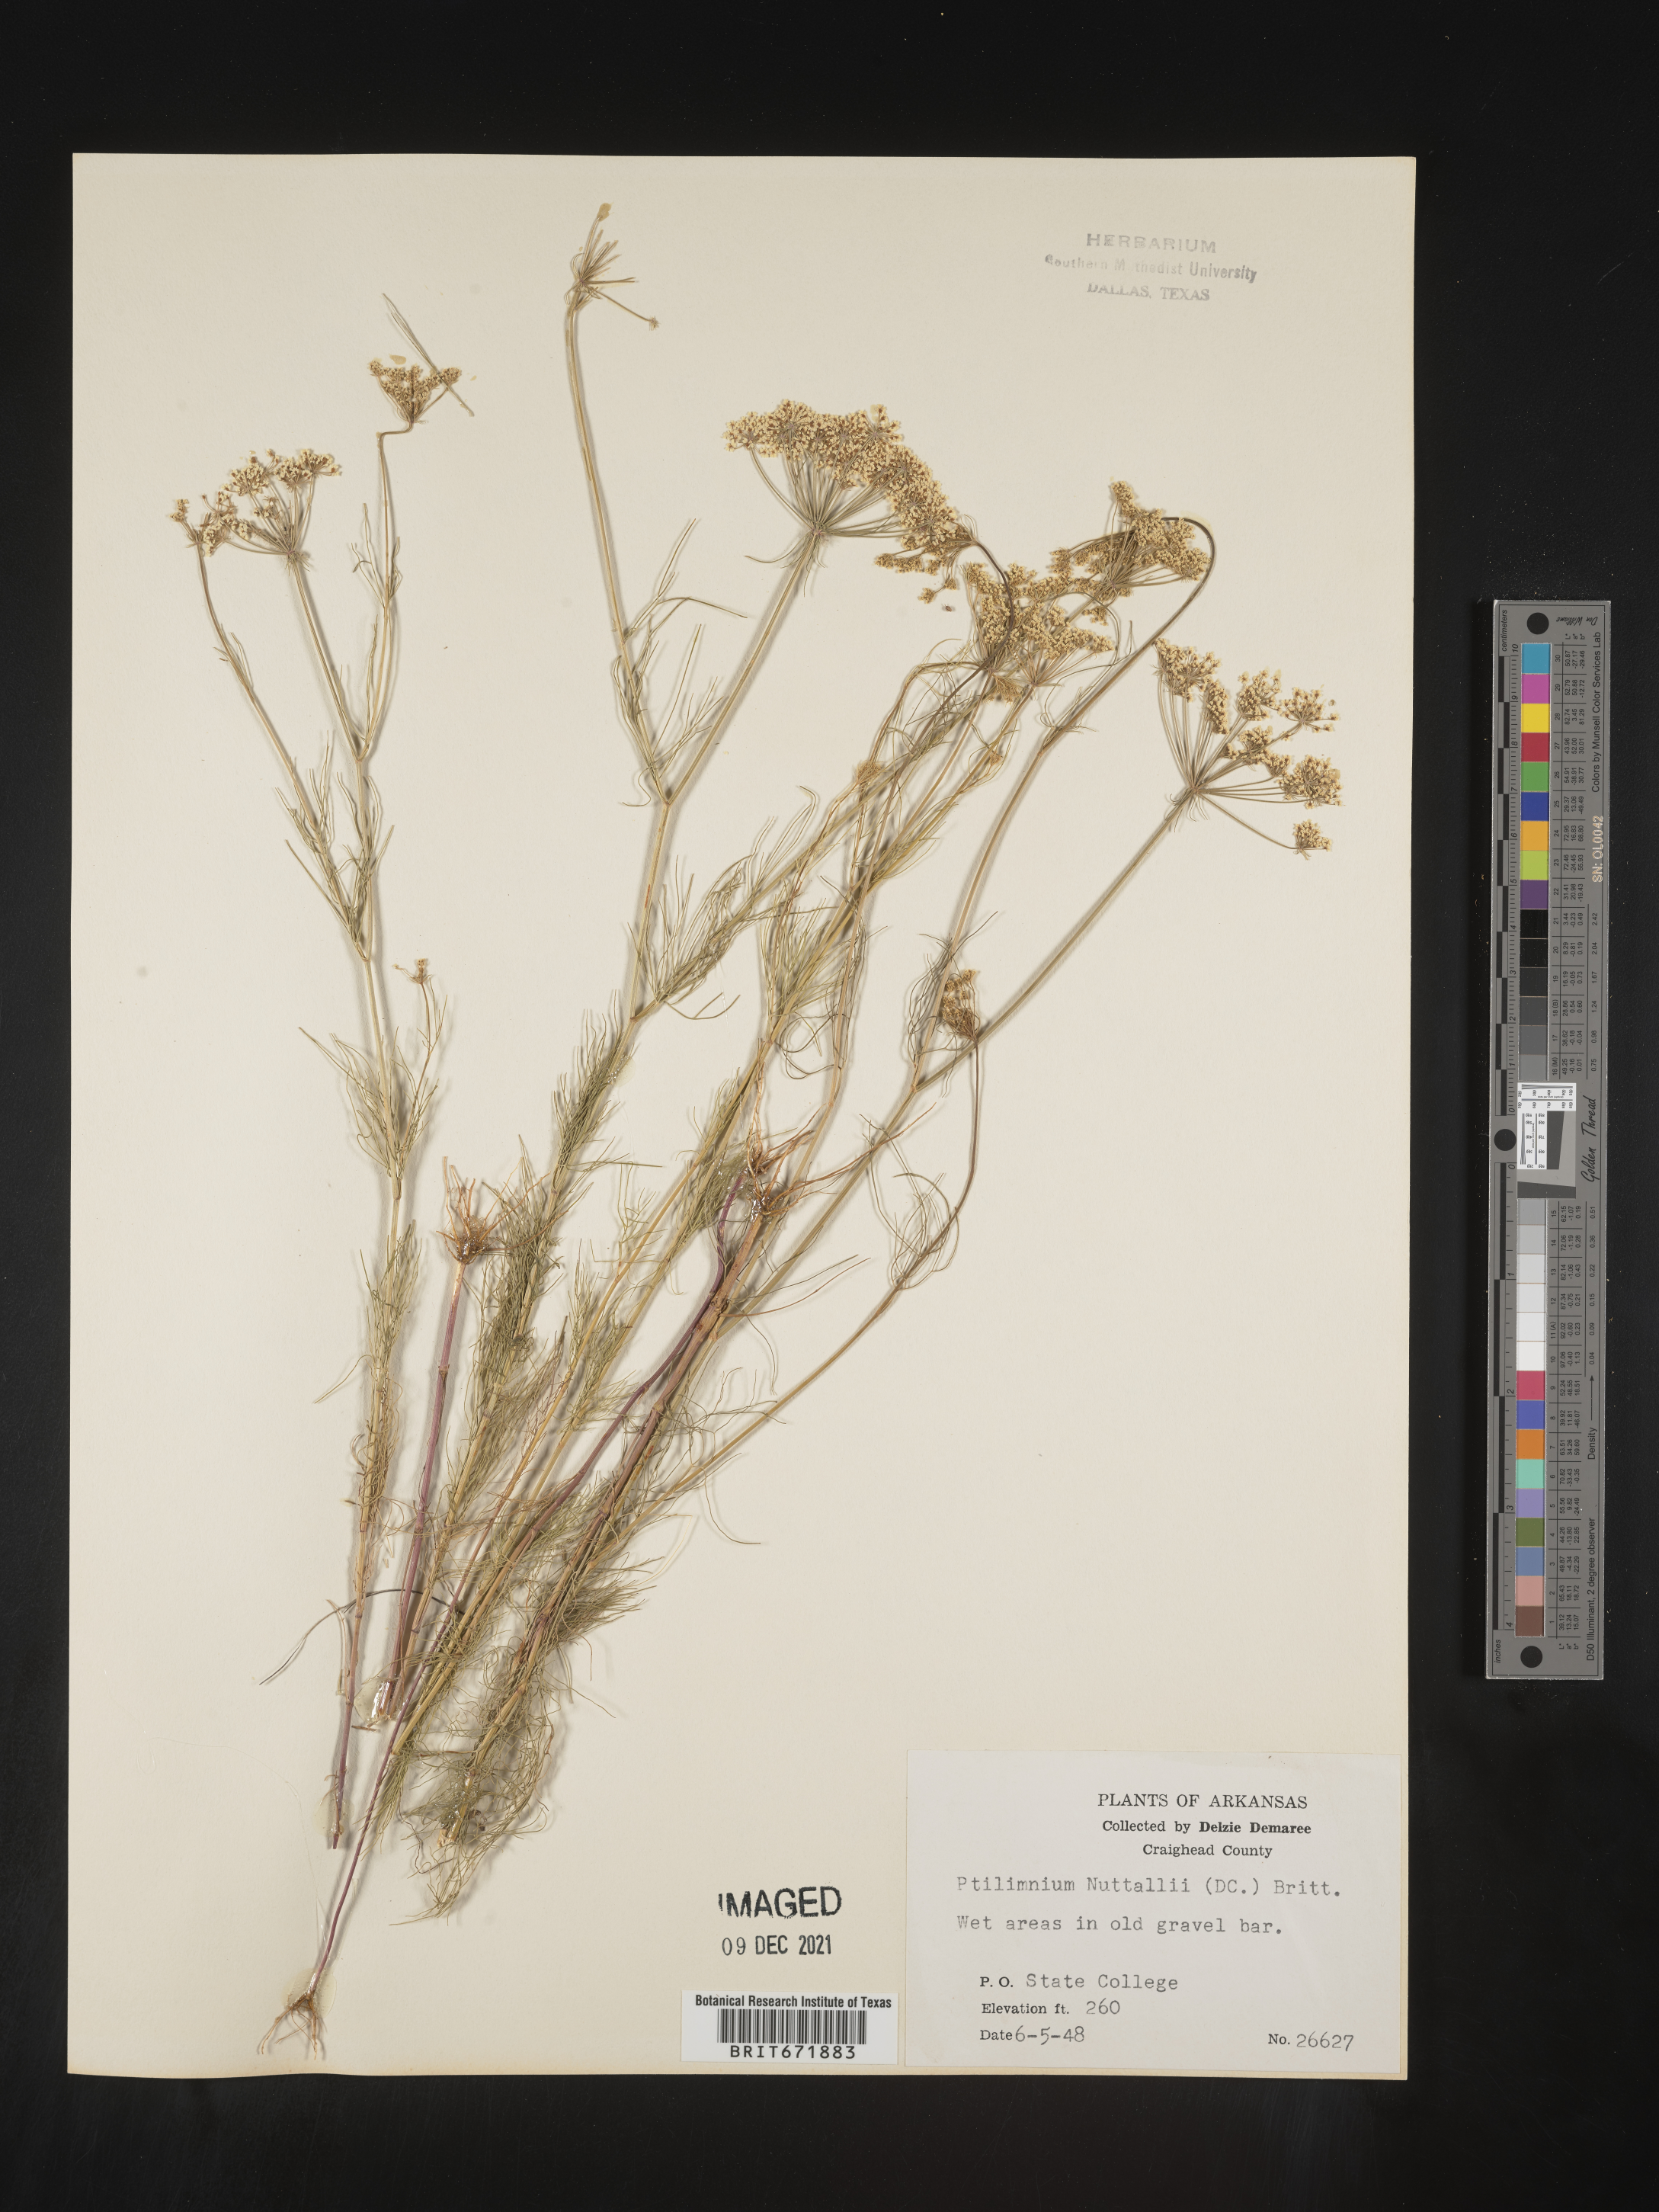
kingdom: Plantae
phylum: Tracheophyta
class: Magnoliopsida
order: Apiales
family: Apiaceae
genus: Ptilimnium
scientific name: Ptilimnium nuttallii
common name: Ozark bishop's-weed
